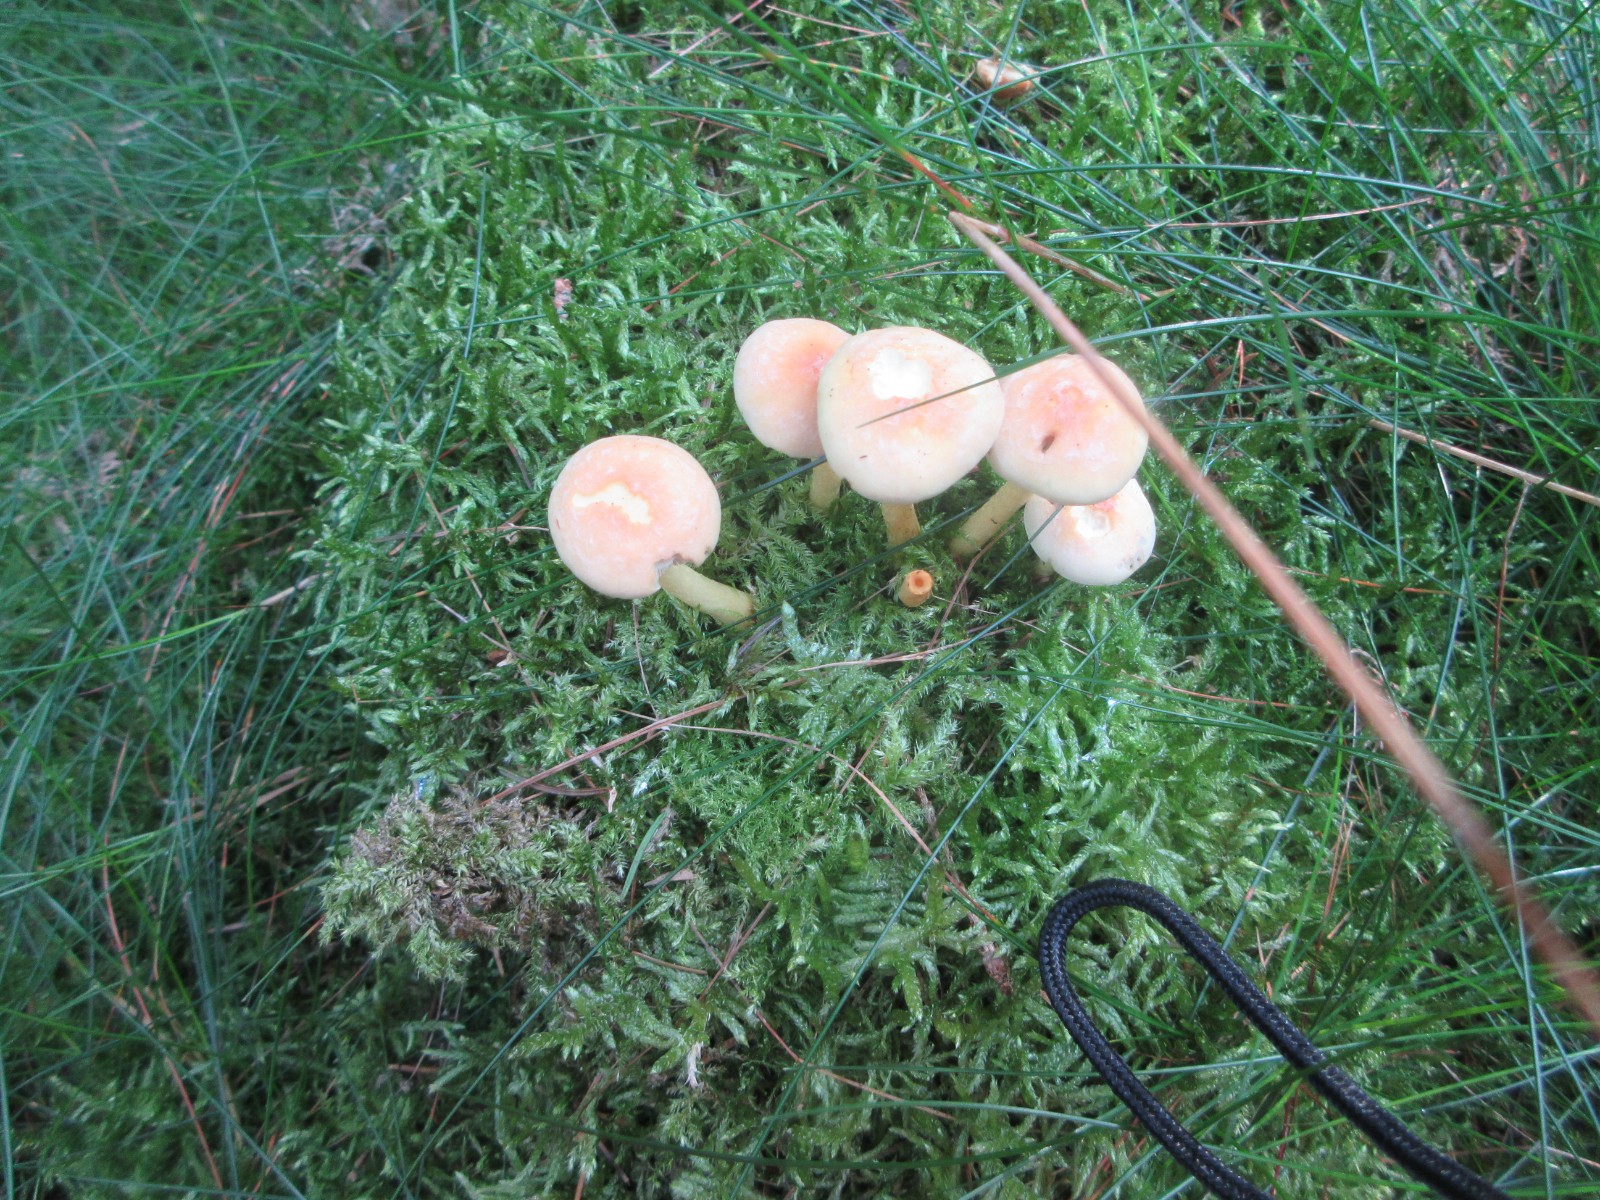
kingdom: Fungi
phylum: Basidiomycota
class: Agaricomycetes
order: Agaricales
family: Strophariaceae
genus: Hypholoma
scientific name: Hypholoma capnoides
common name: gran-svovlhat
